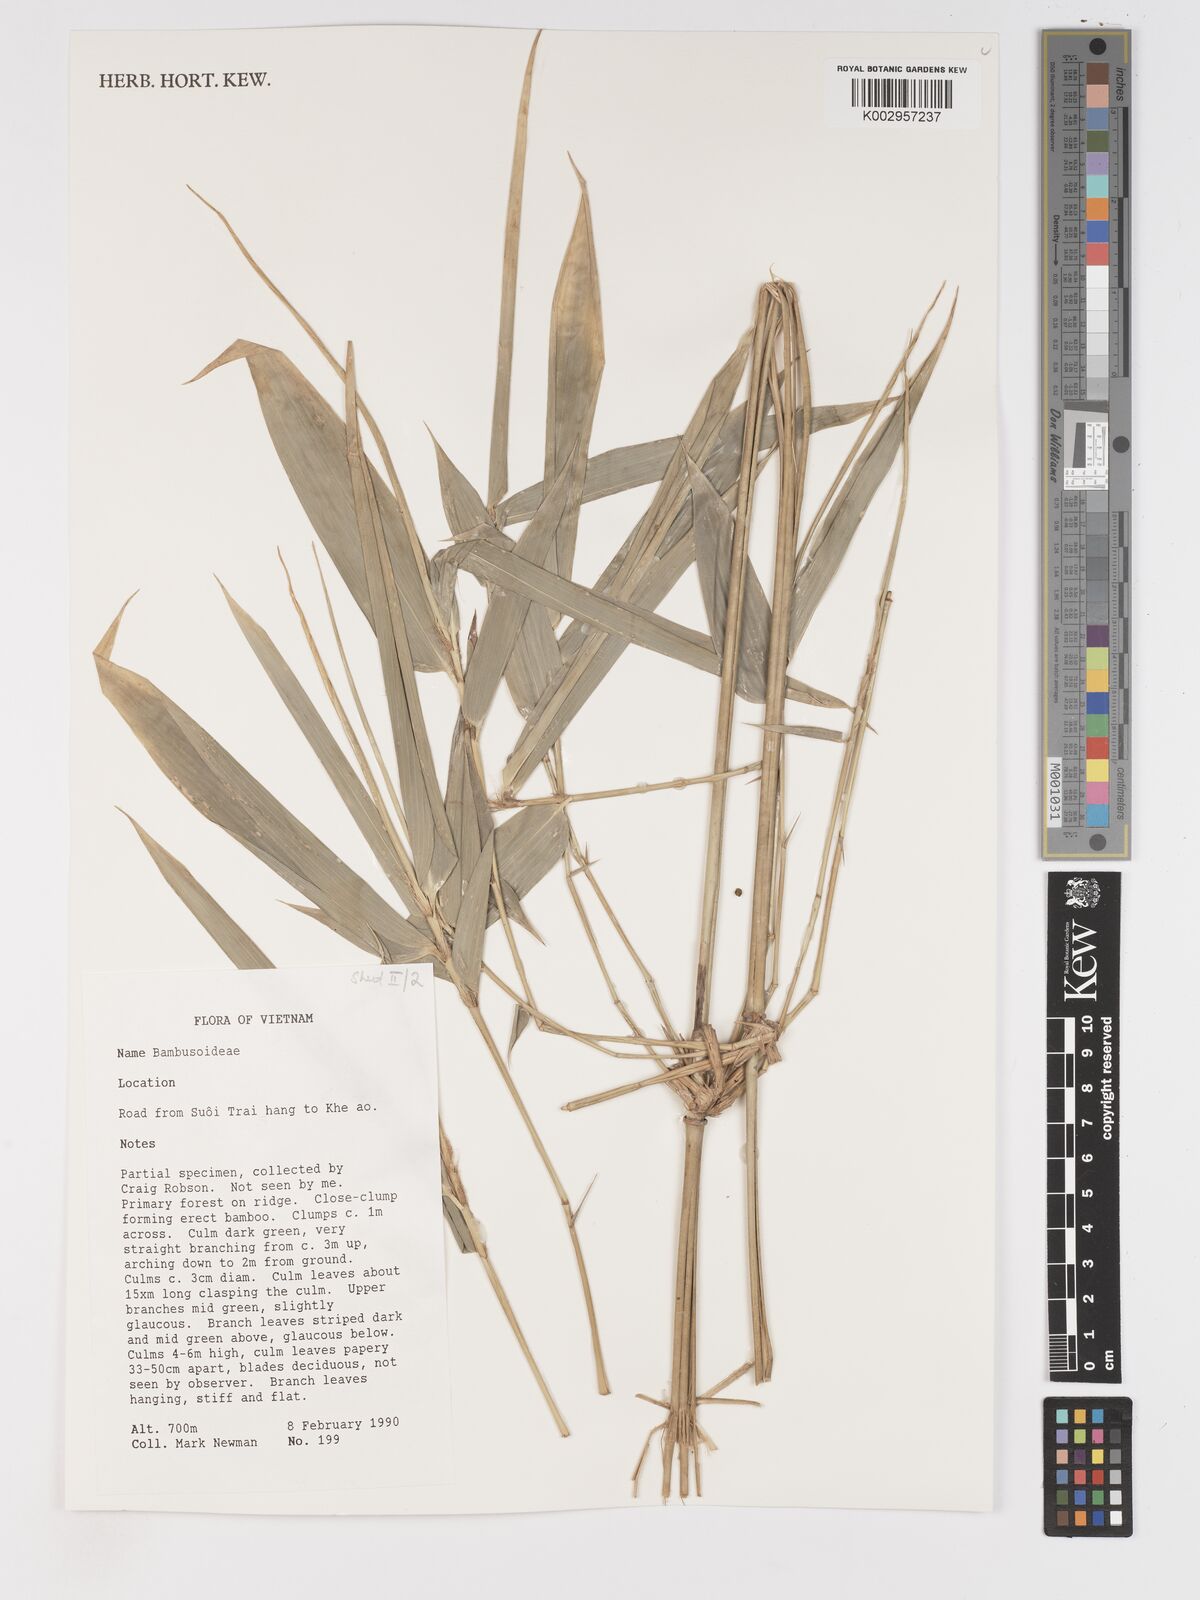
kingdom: Plantae
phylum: Tracheophyta
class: Liliopsida
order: Poales
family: Poaceae
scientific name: Poaceae
